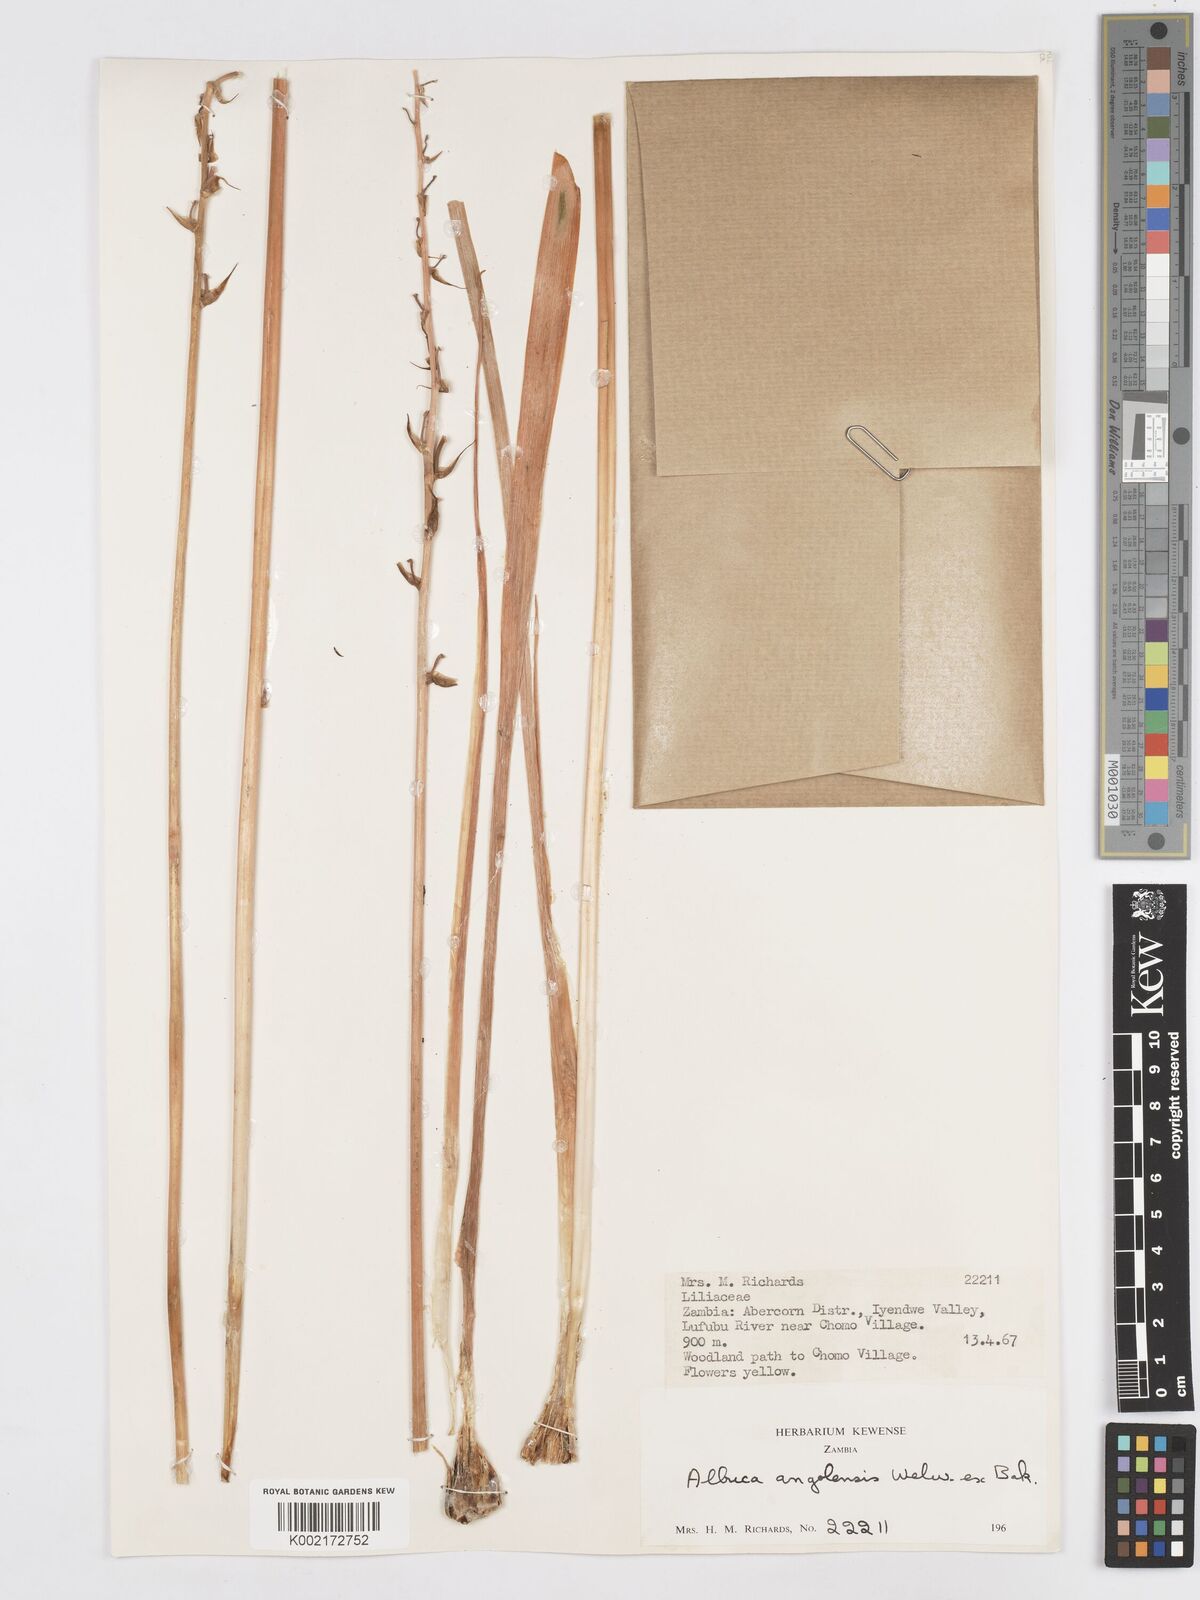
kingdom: Plantae
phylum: Tracheophyta
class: Liliopsida
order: Asparagales
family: Asparagaceae
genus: Albuca
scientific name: Albuca abyssinica
